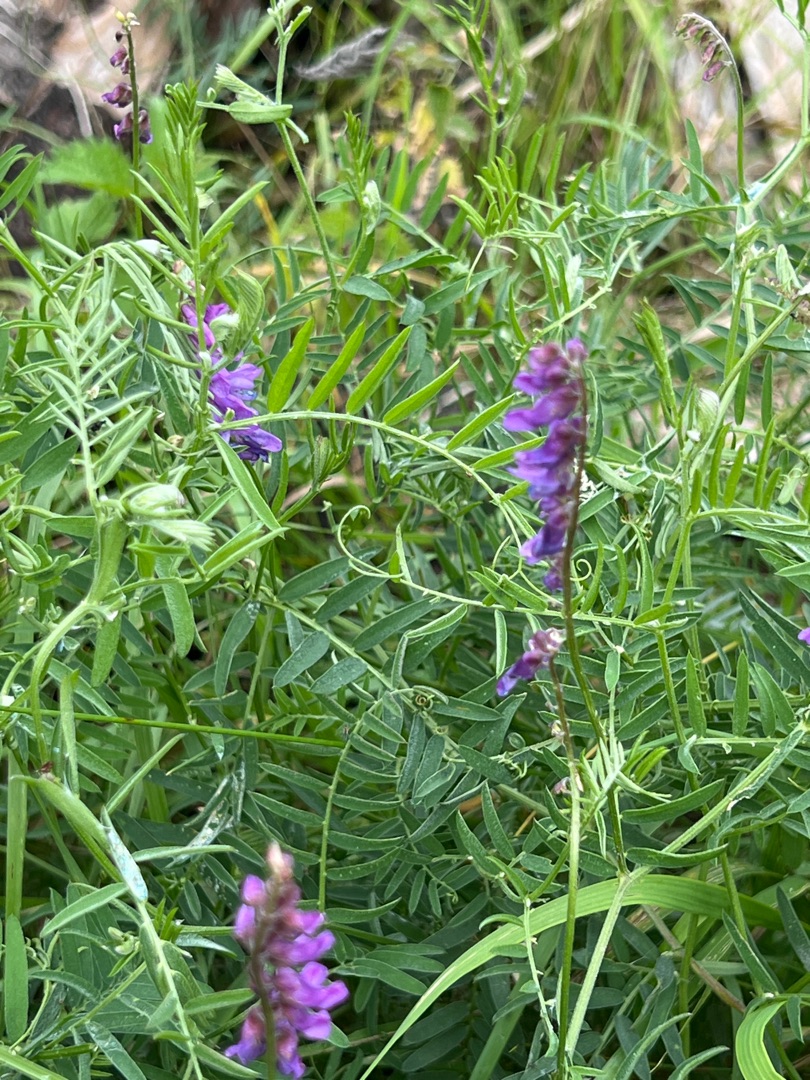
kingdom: Plantae
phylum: Tracheophyta
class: Magnoliopsida
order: Fabales
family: Fabaceae
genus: Vicia
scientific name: Vicia cracca
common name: Muse-vikke
